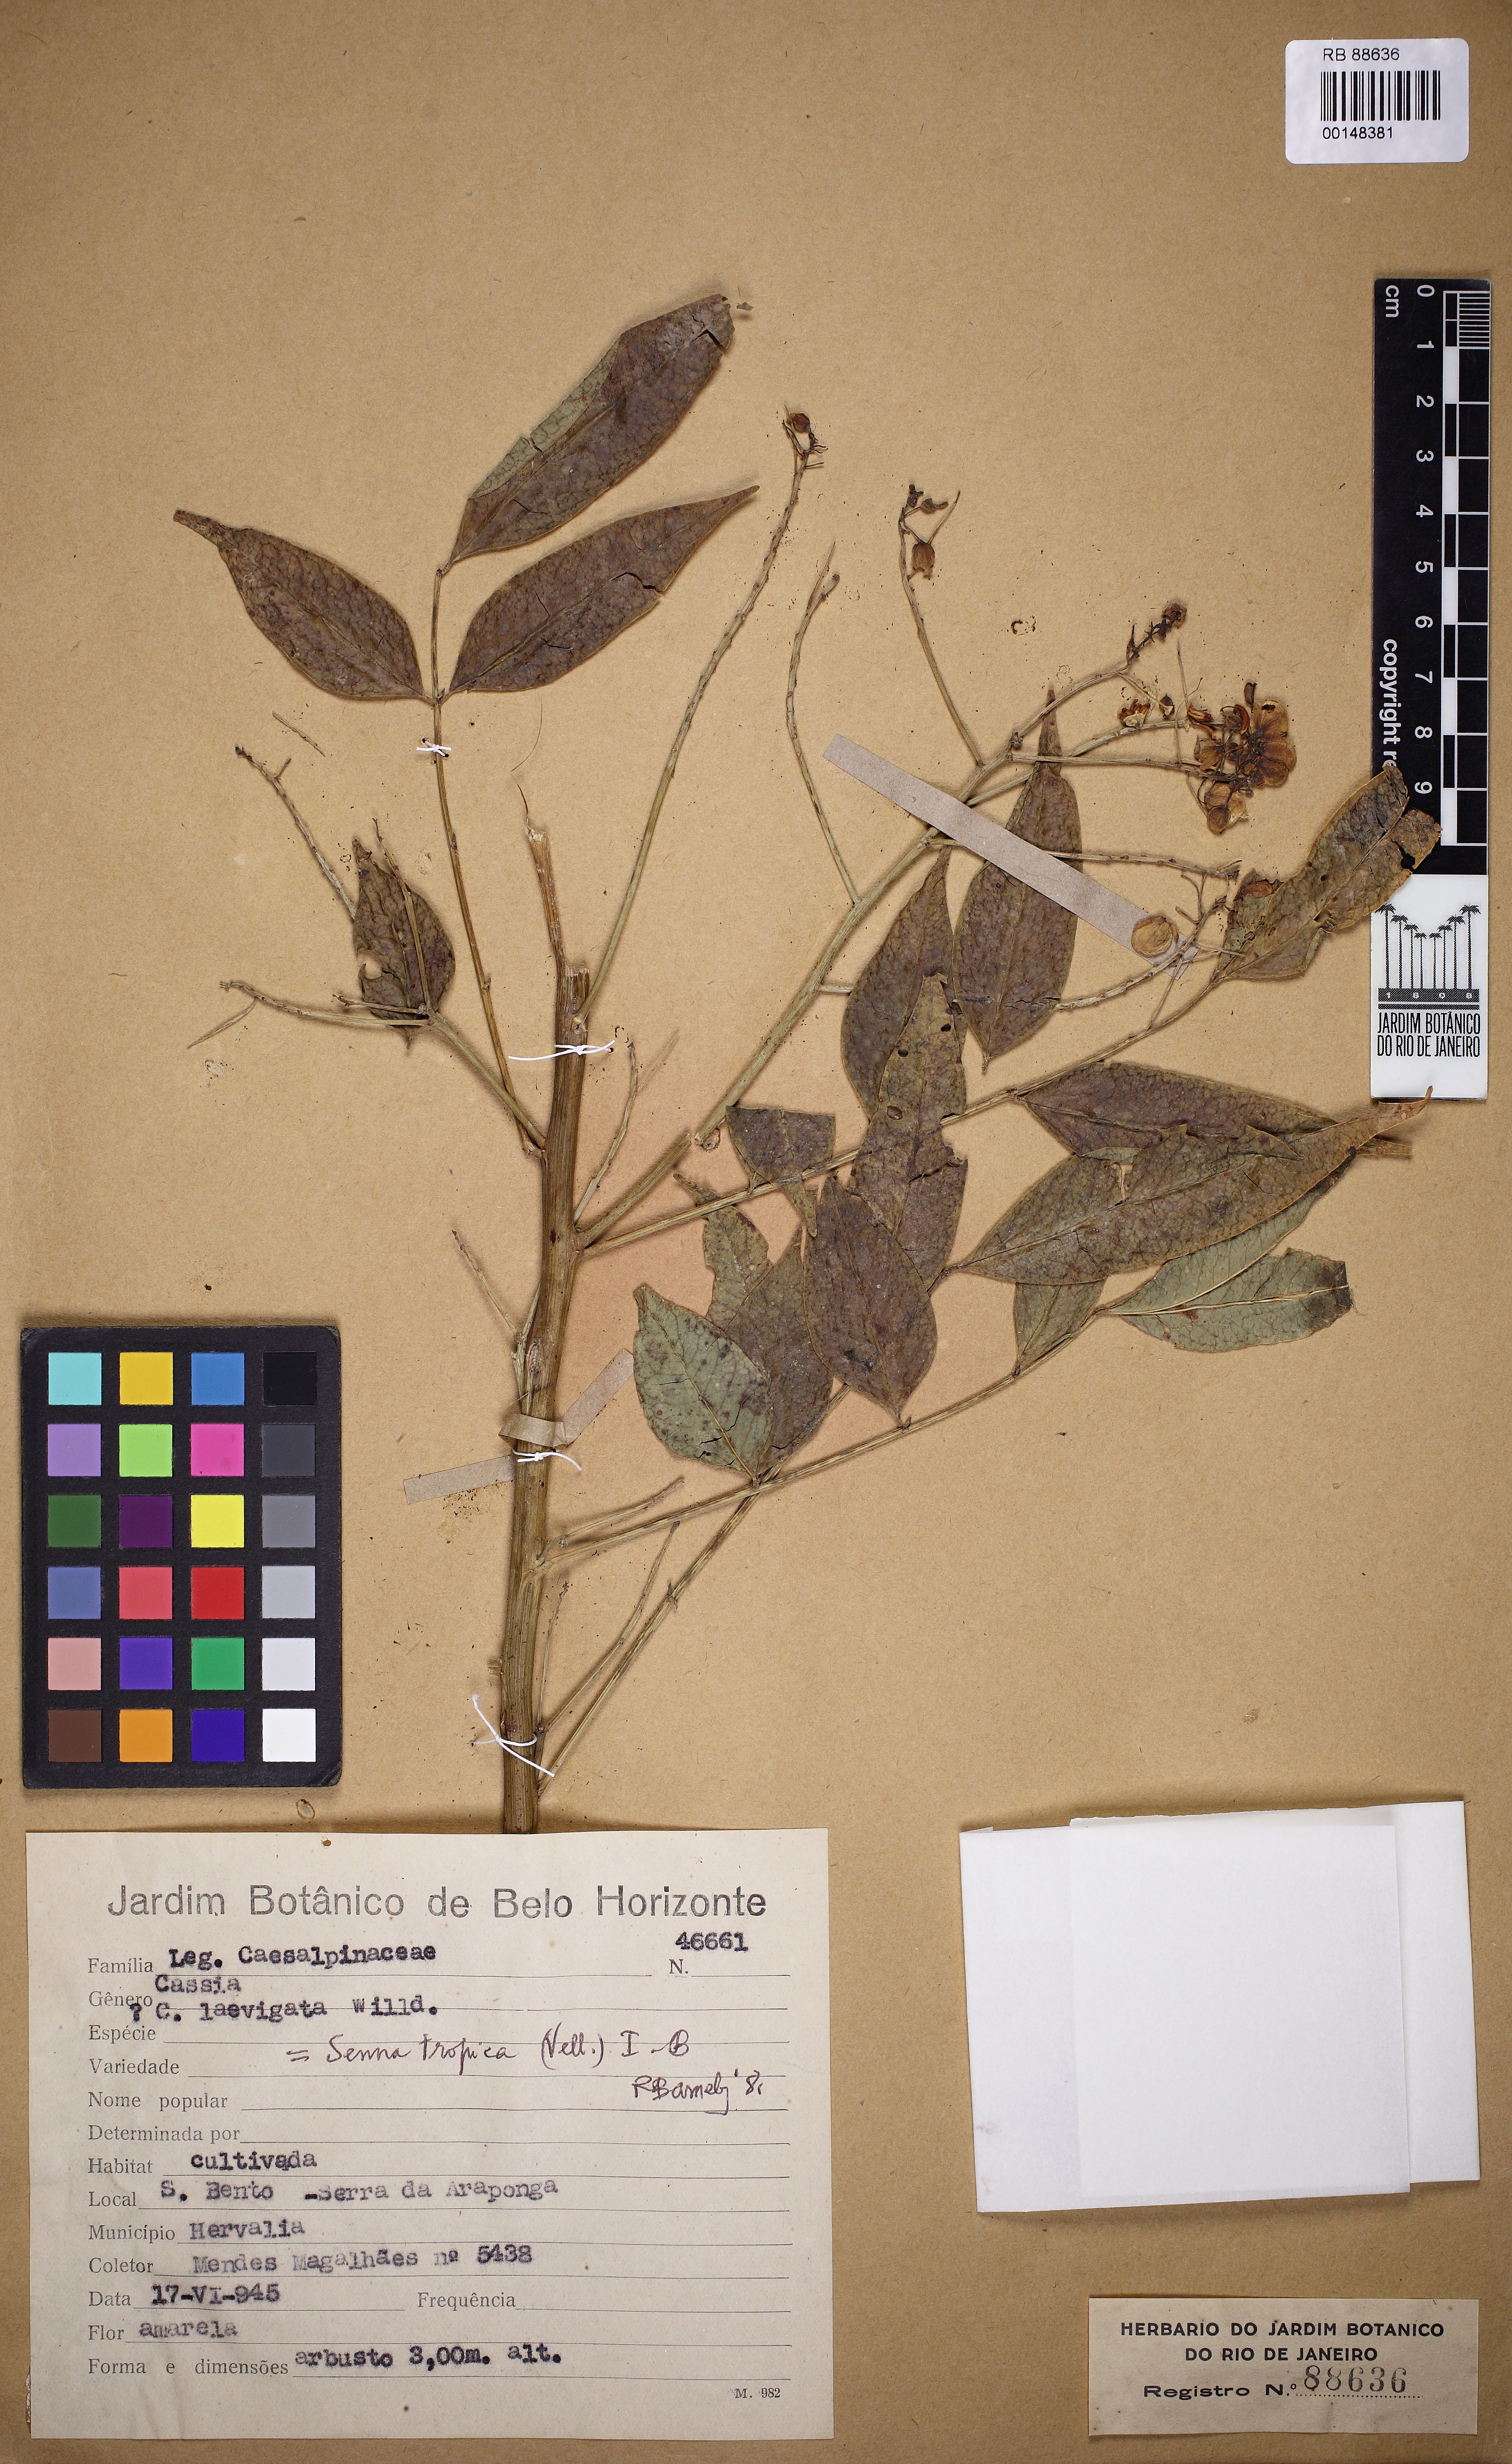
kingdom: Plantae
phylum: Tracheophyta
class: Magnoliopsida
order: Fabales
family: Fabaceae
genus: Senna
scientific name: Senna tropica
